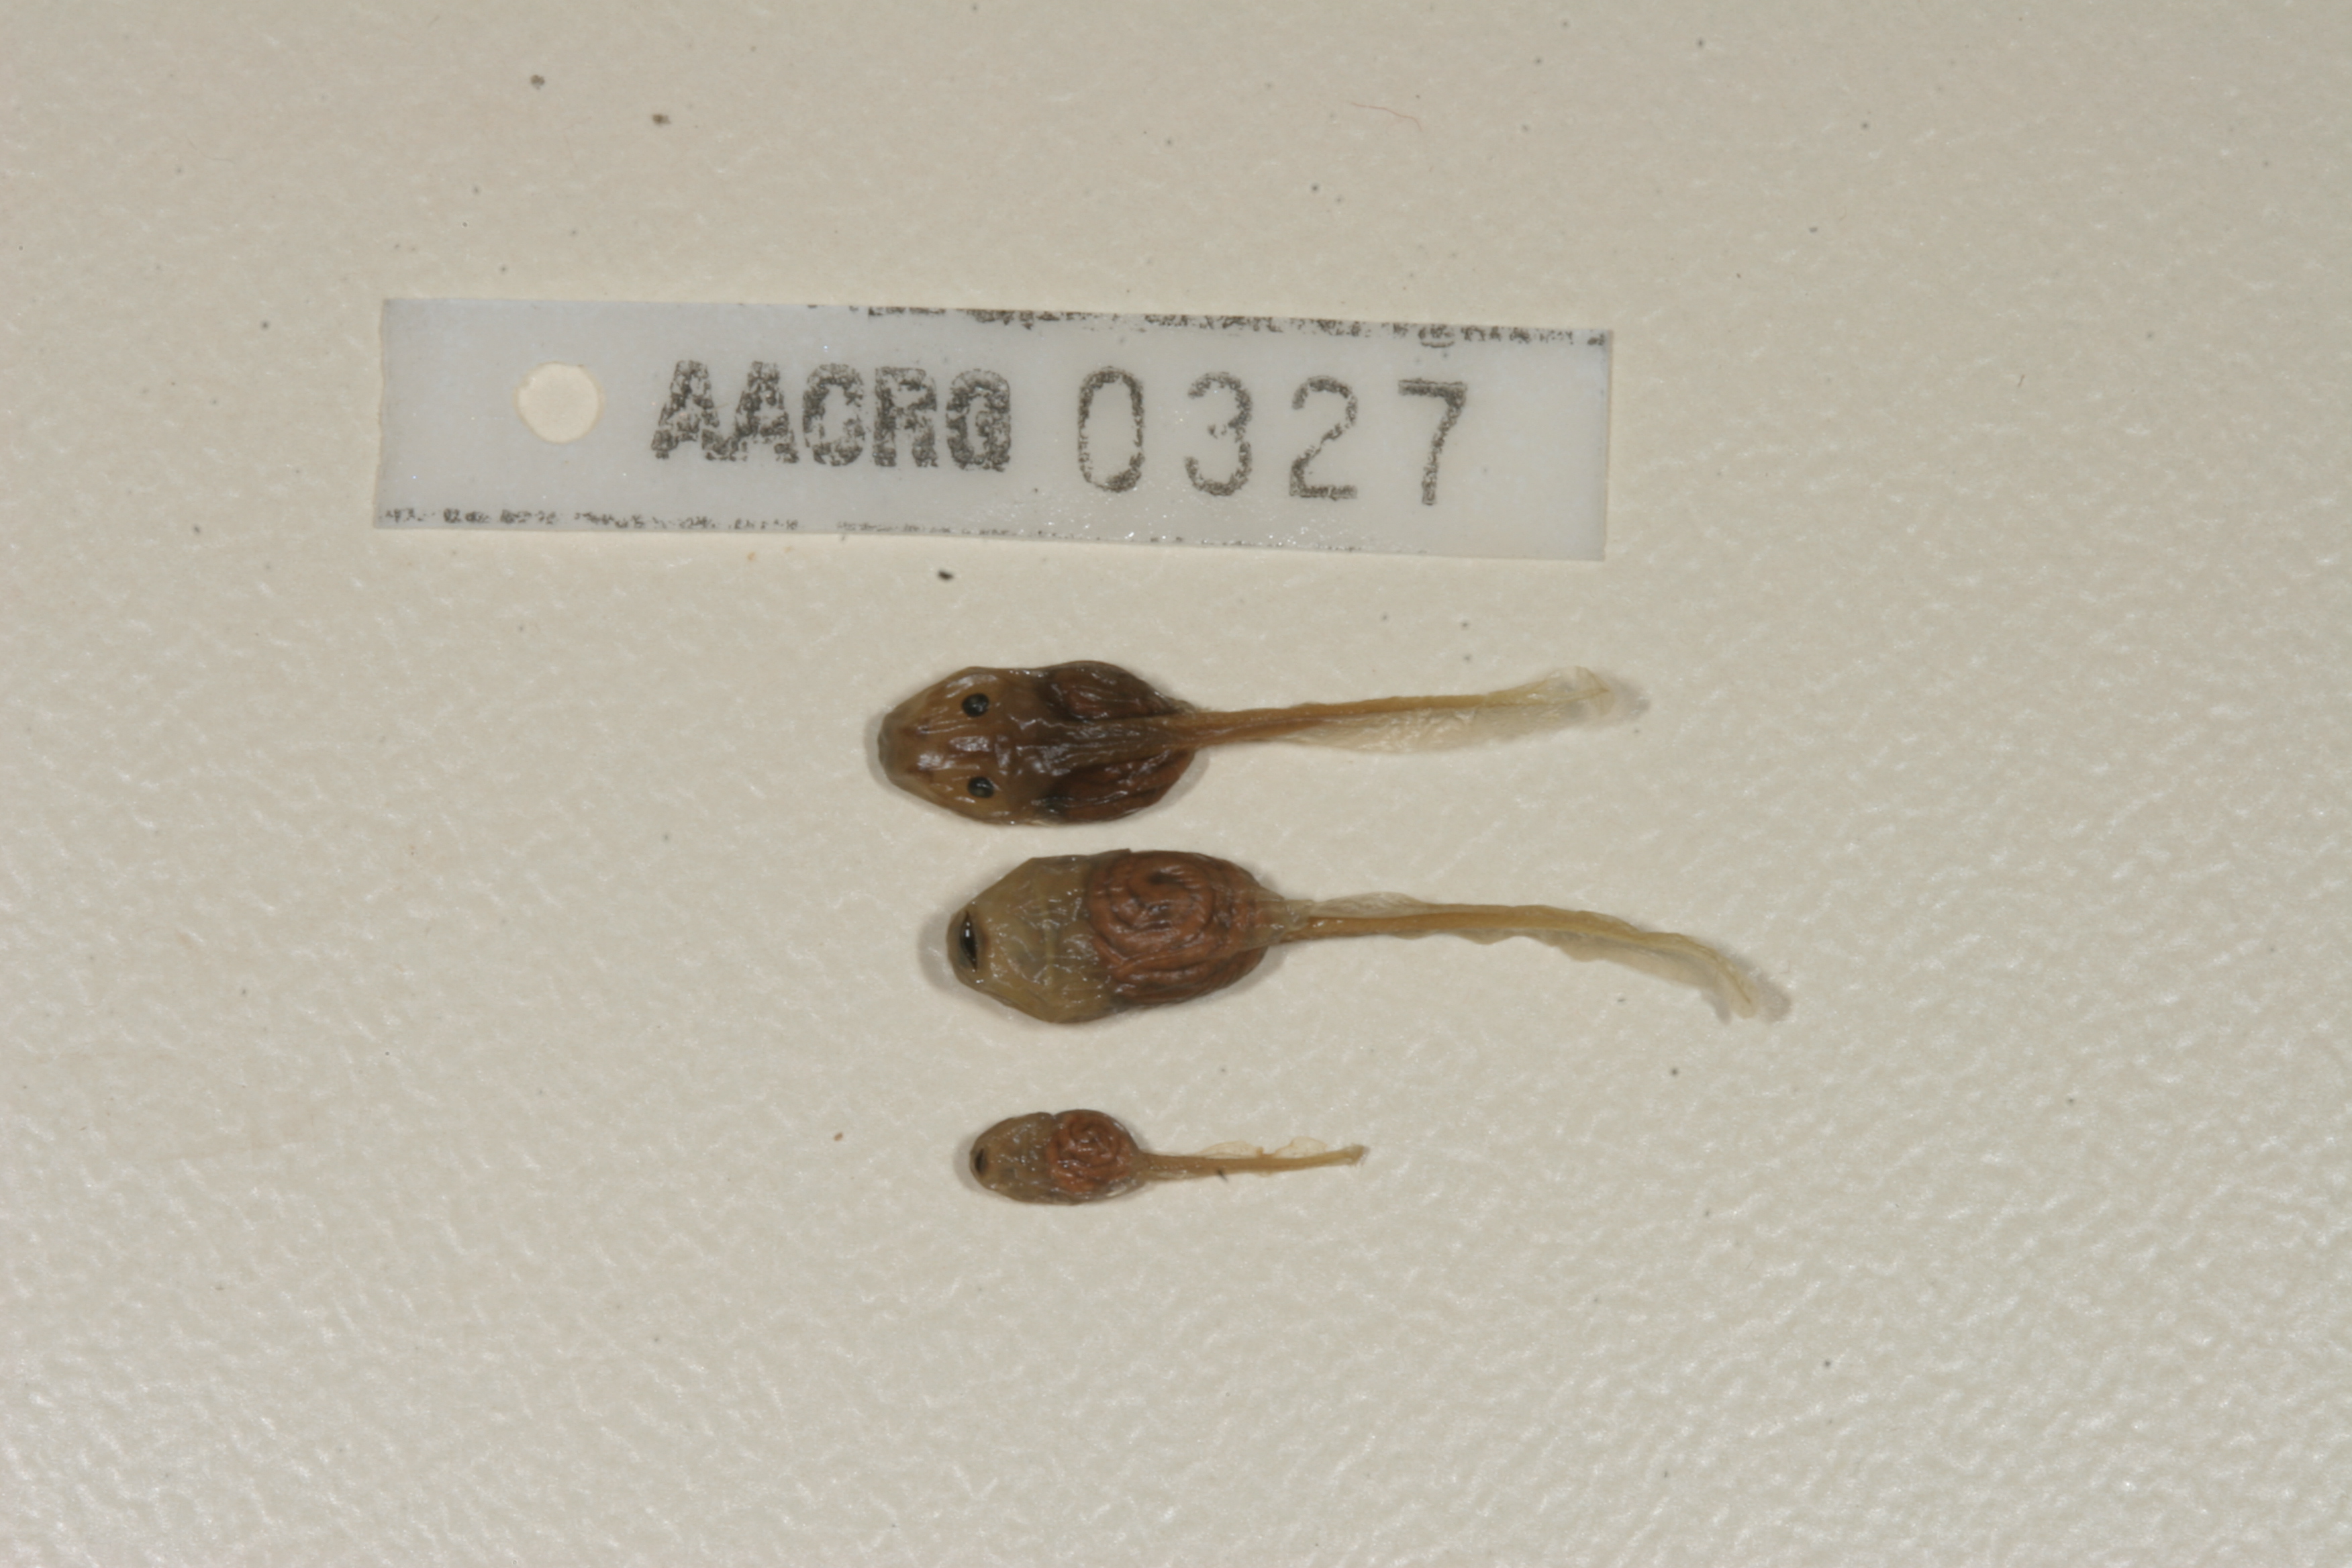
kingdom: Animalia
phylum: Chordata
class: Amphibia
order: Anura
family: Pyxicephalidae
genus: Strongylopus
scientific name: Strongylopus grayii
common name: Gray's stream frog
